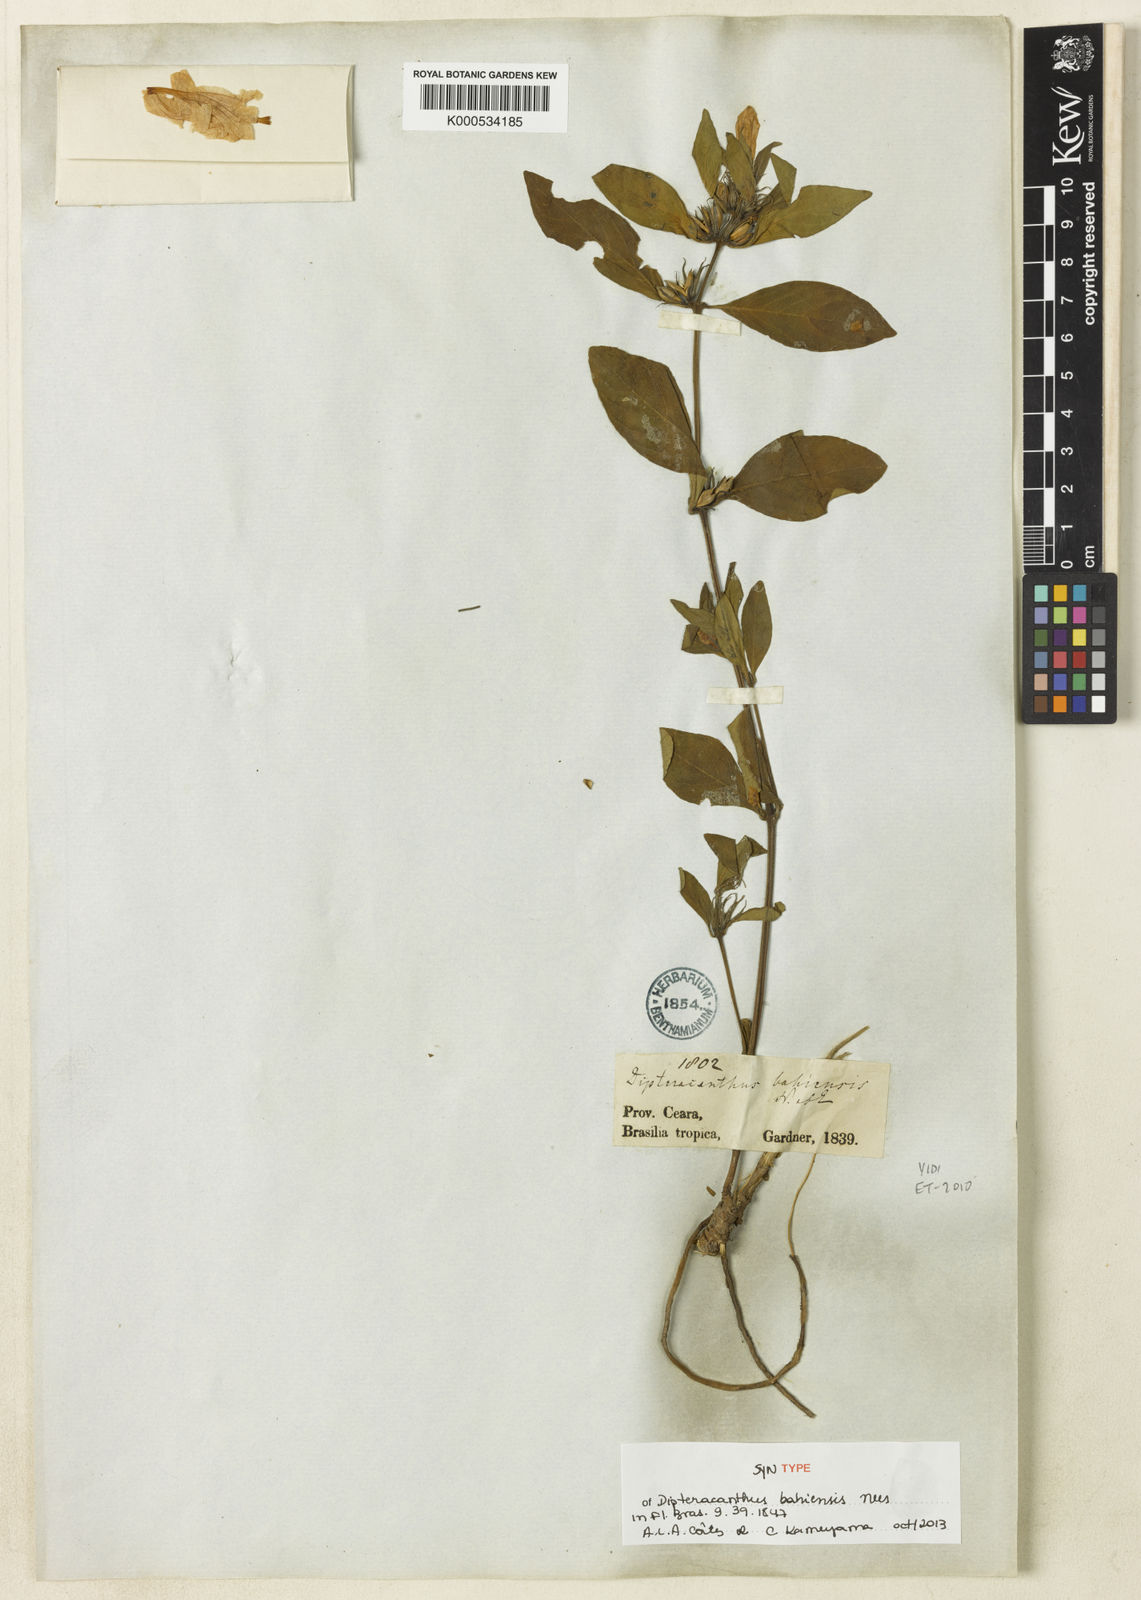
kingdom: Plantae
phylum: Tracheophyta
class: Magnoliopsida
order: Lamiales
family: Acanthaceae
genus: Ruellia
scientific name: Ruellia bahiensis
